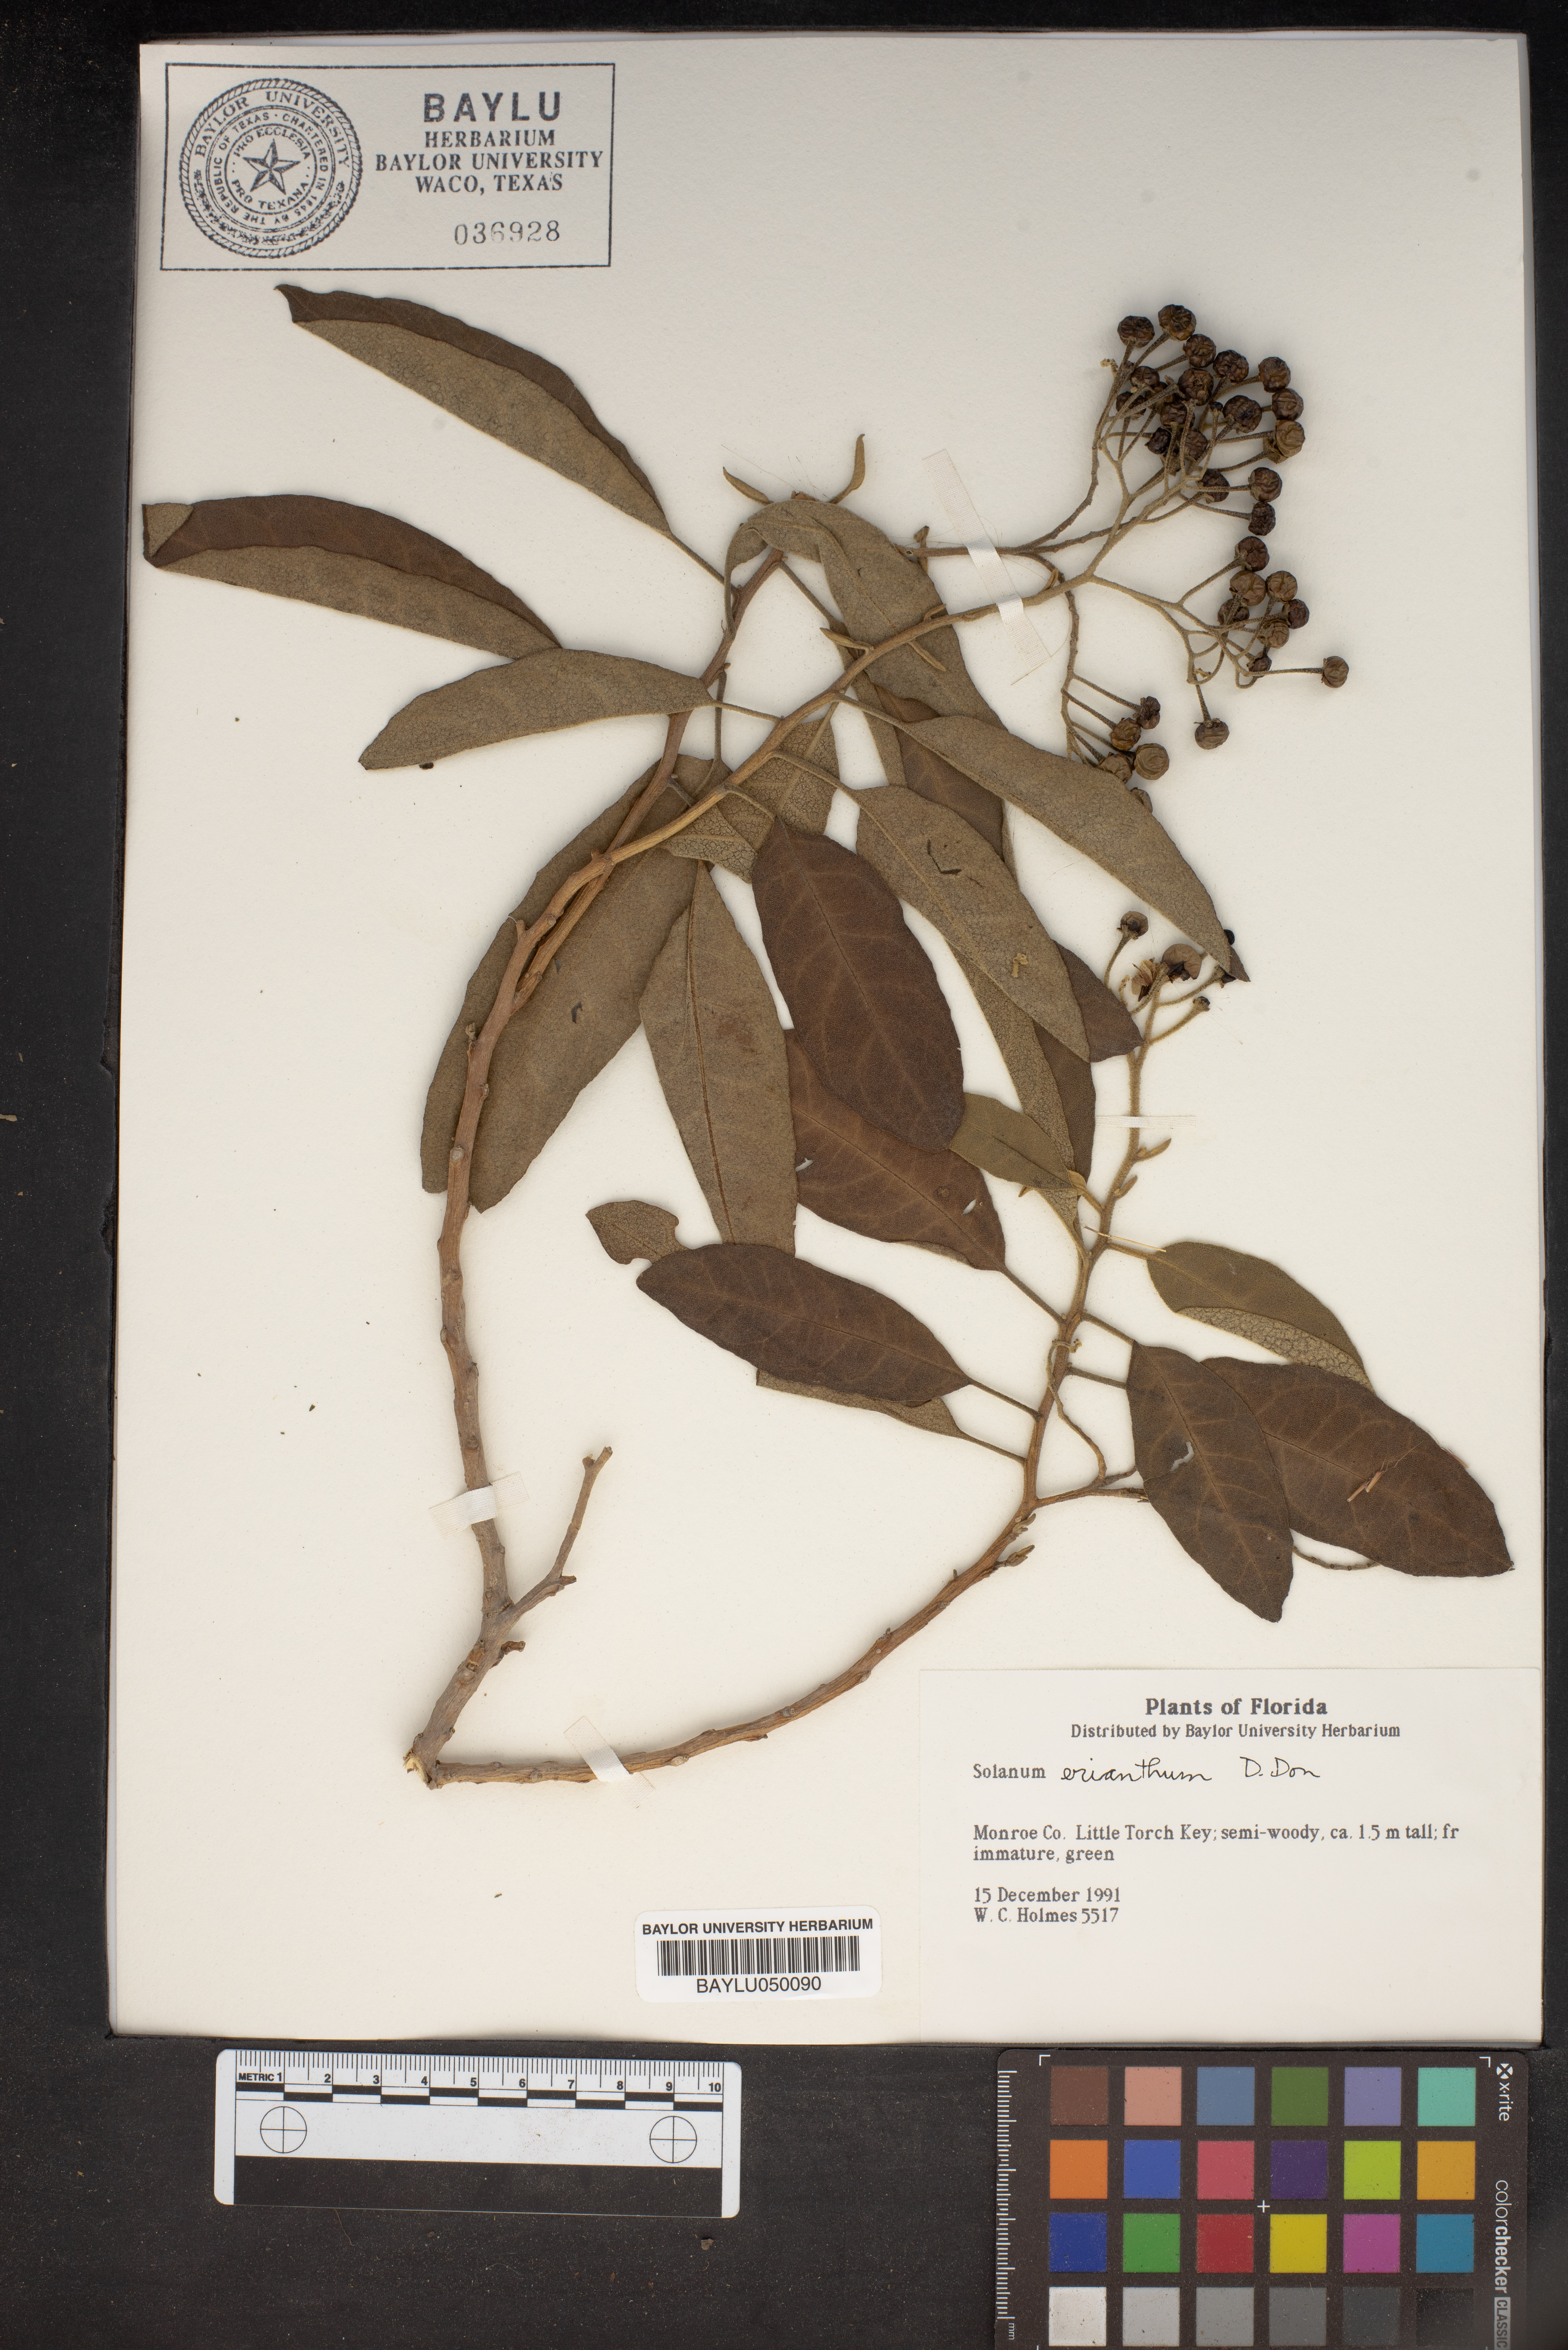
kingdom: Plantae
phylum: Tracheophyta
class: Magnoliopsida
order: Solanales
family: Solanaceae
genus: Solanum
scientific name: Solanum erianthum
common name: Tobacco-tree
